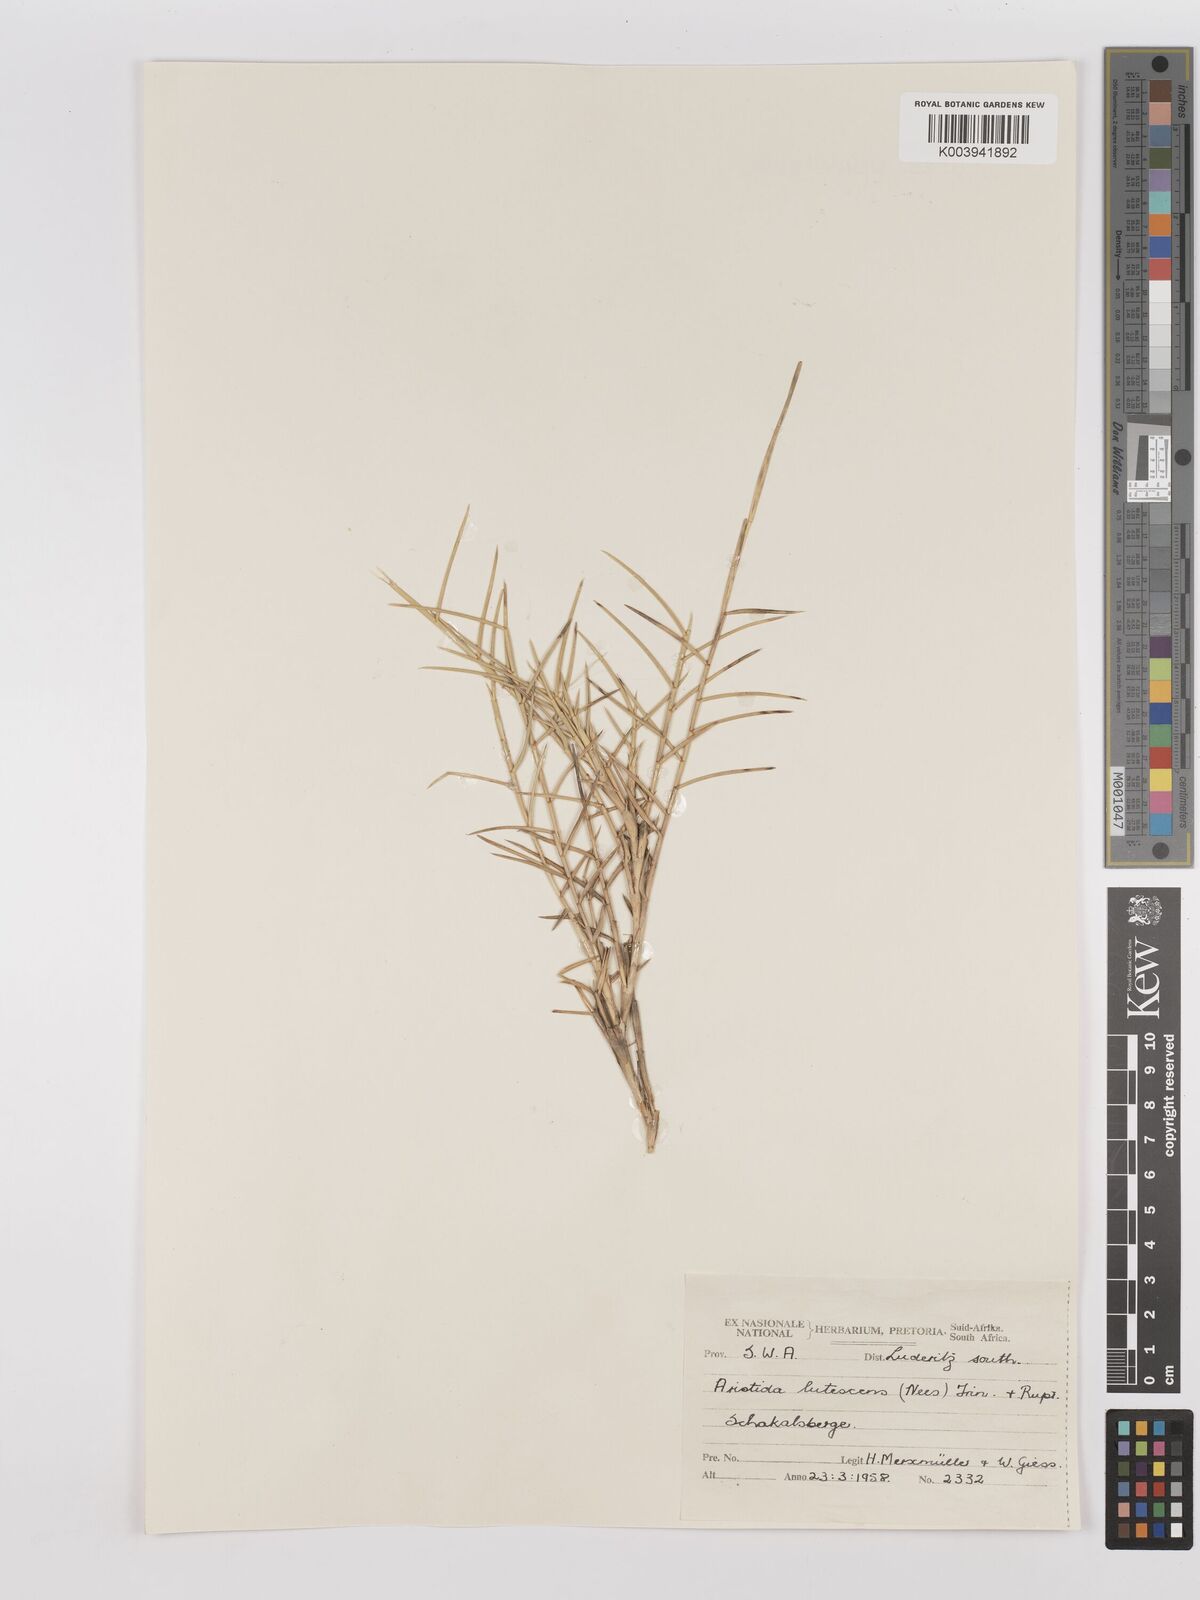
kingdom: Plantae
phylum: Tracheophyta
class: Liliopsida
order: Poales
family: Poaceae
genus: Stipagrostis
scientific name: Stipagrostis lutescens
